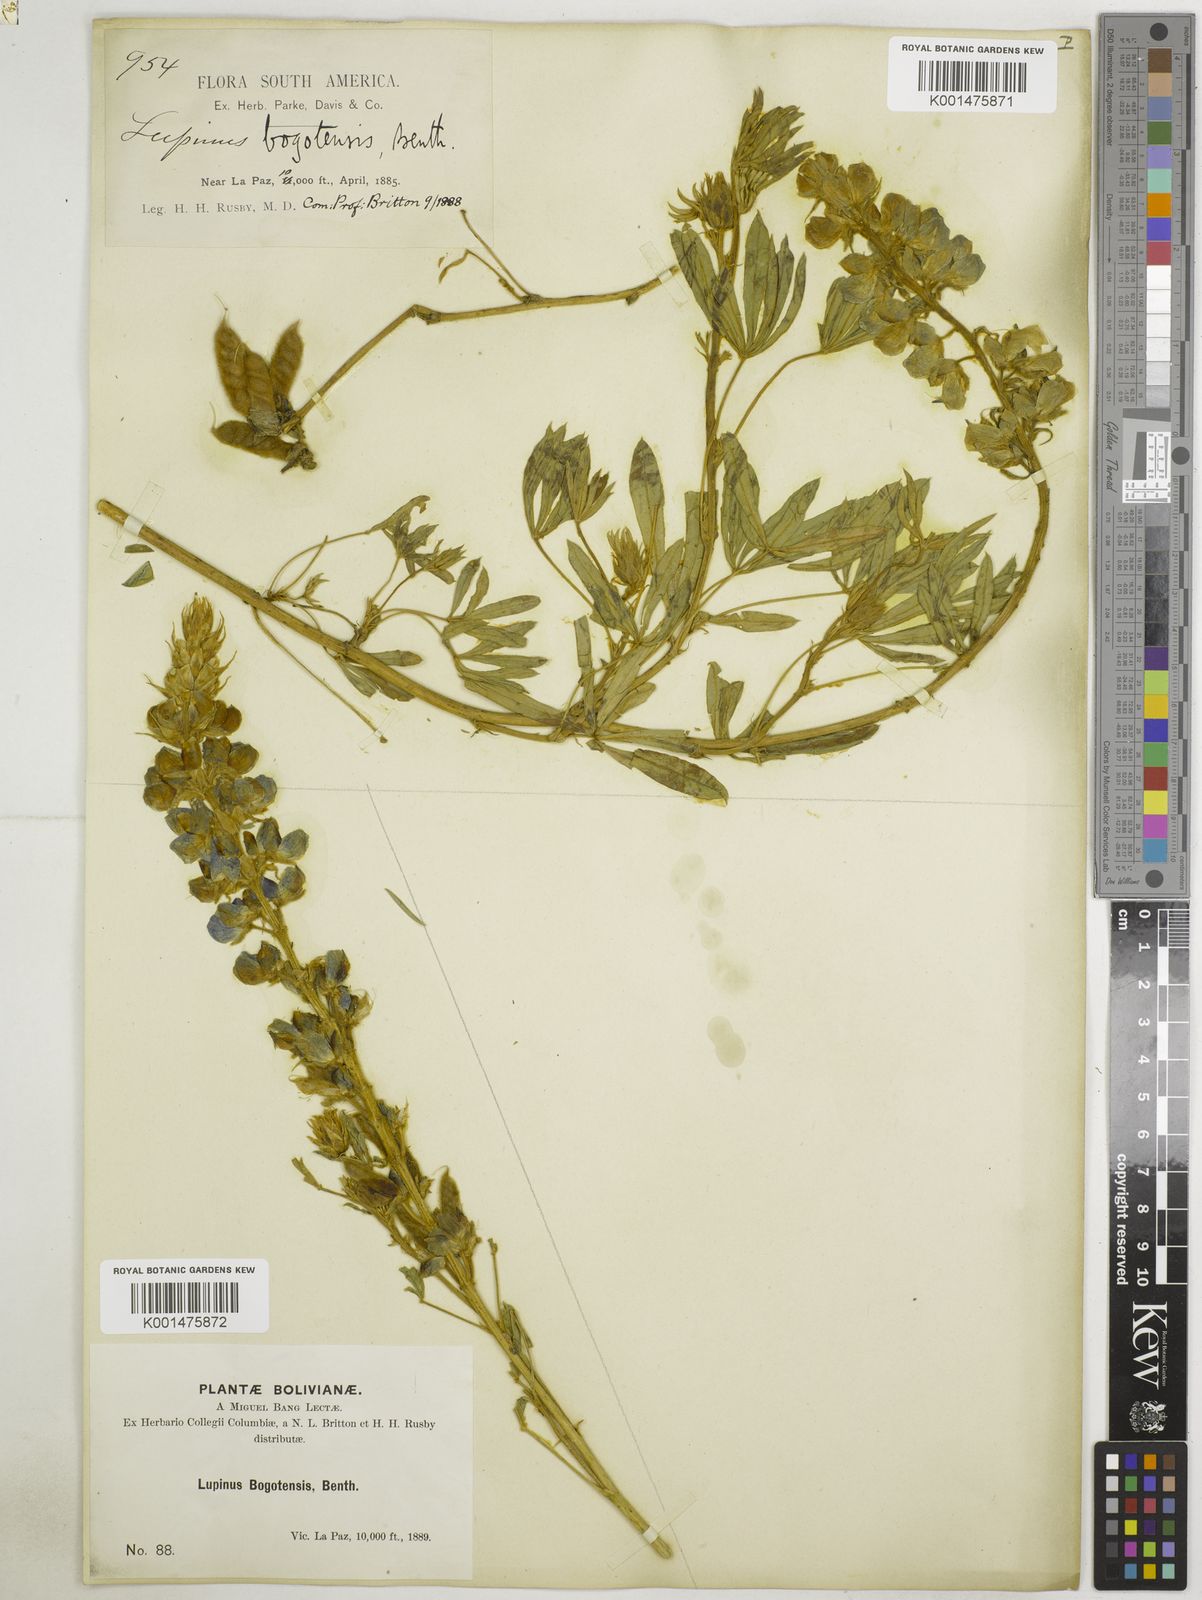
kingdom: Plantae
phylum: Tracheophyta
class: Magnoliopsida
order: Fabales
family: Fabaceae
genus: Lupinus
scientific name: Lupinus paniculatus
